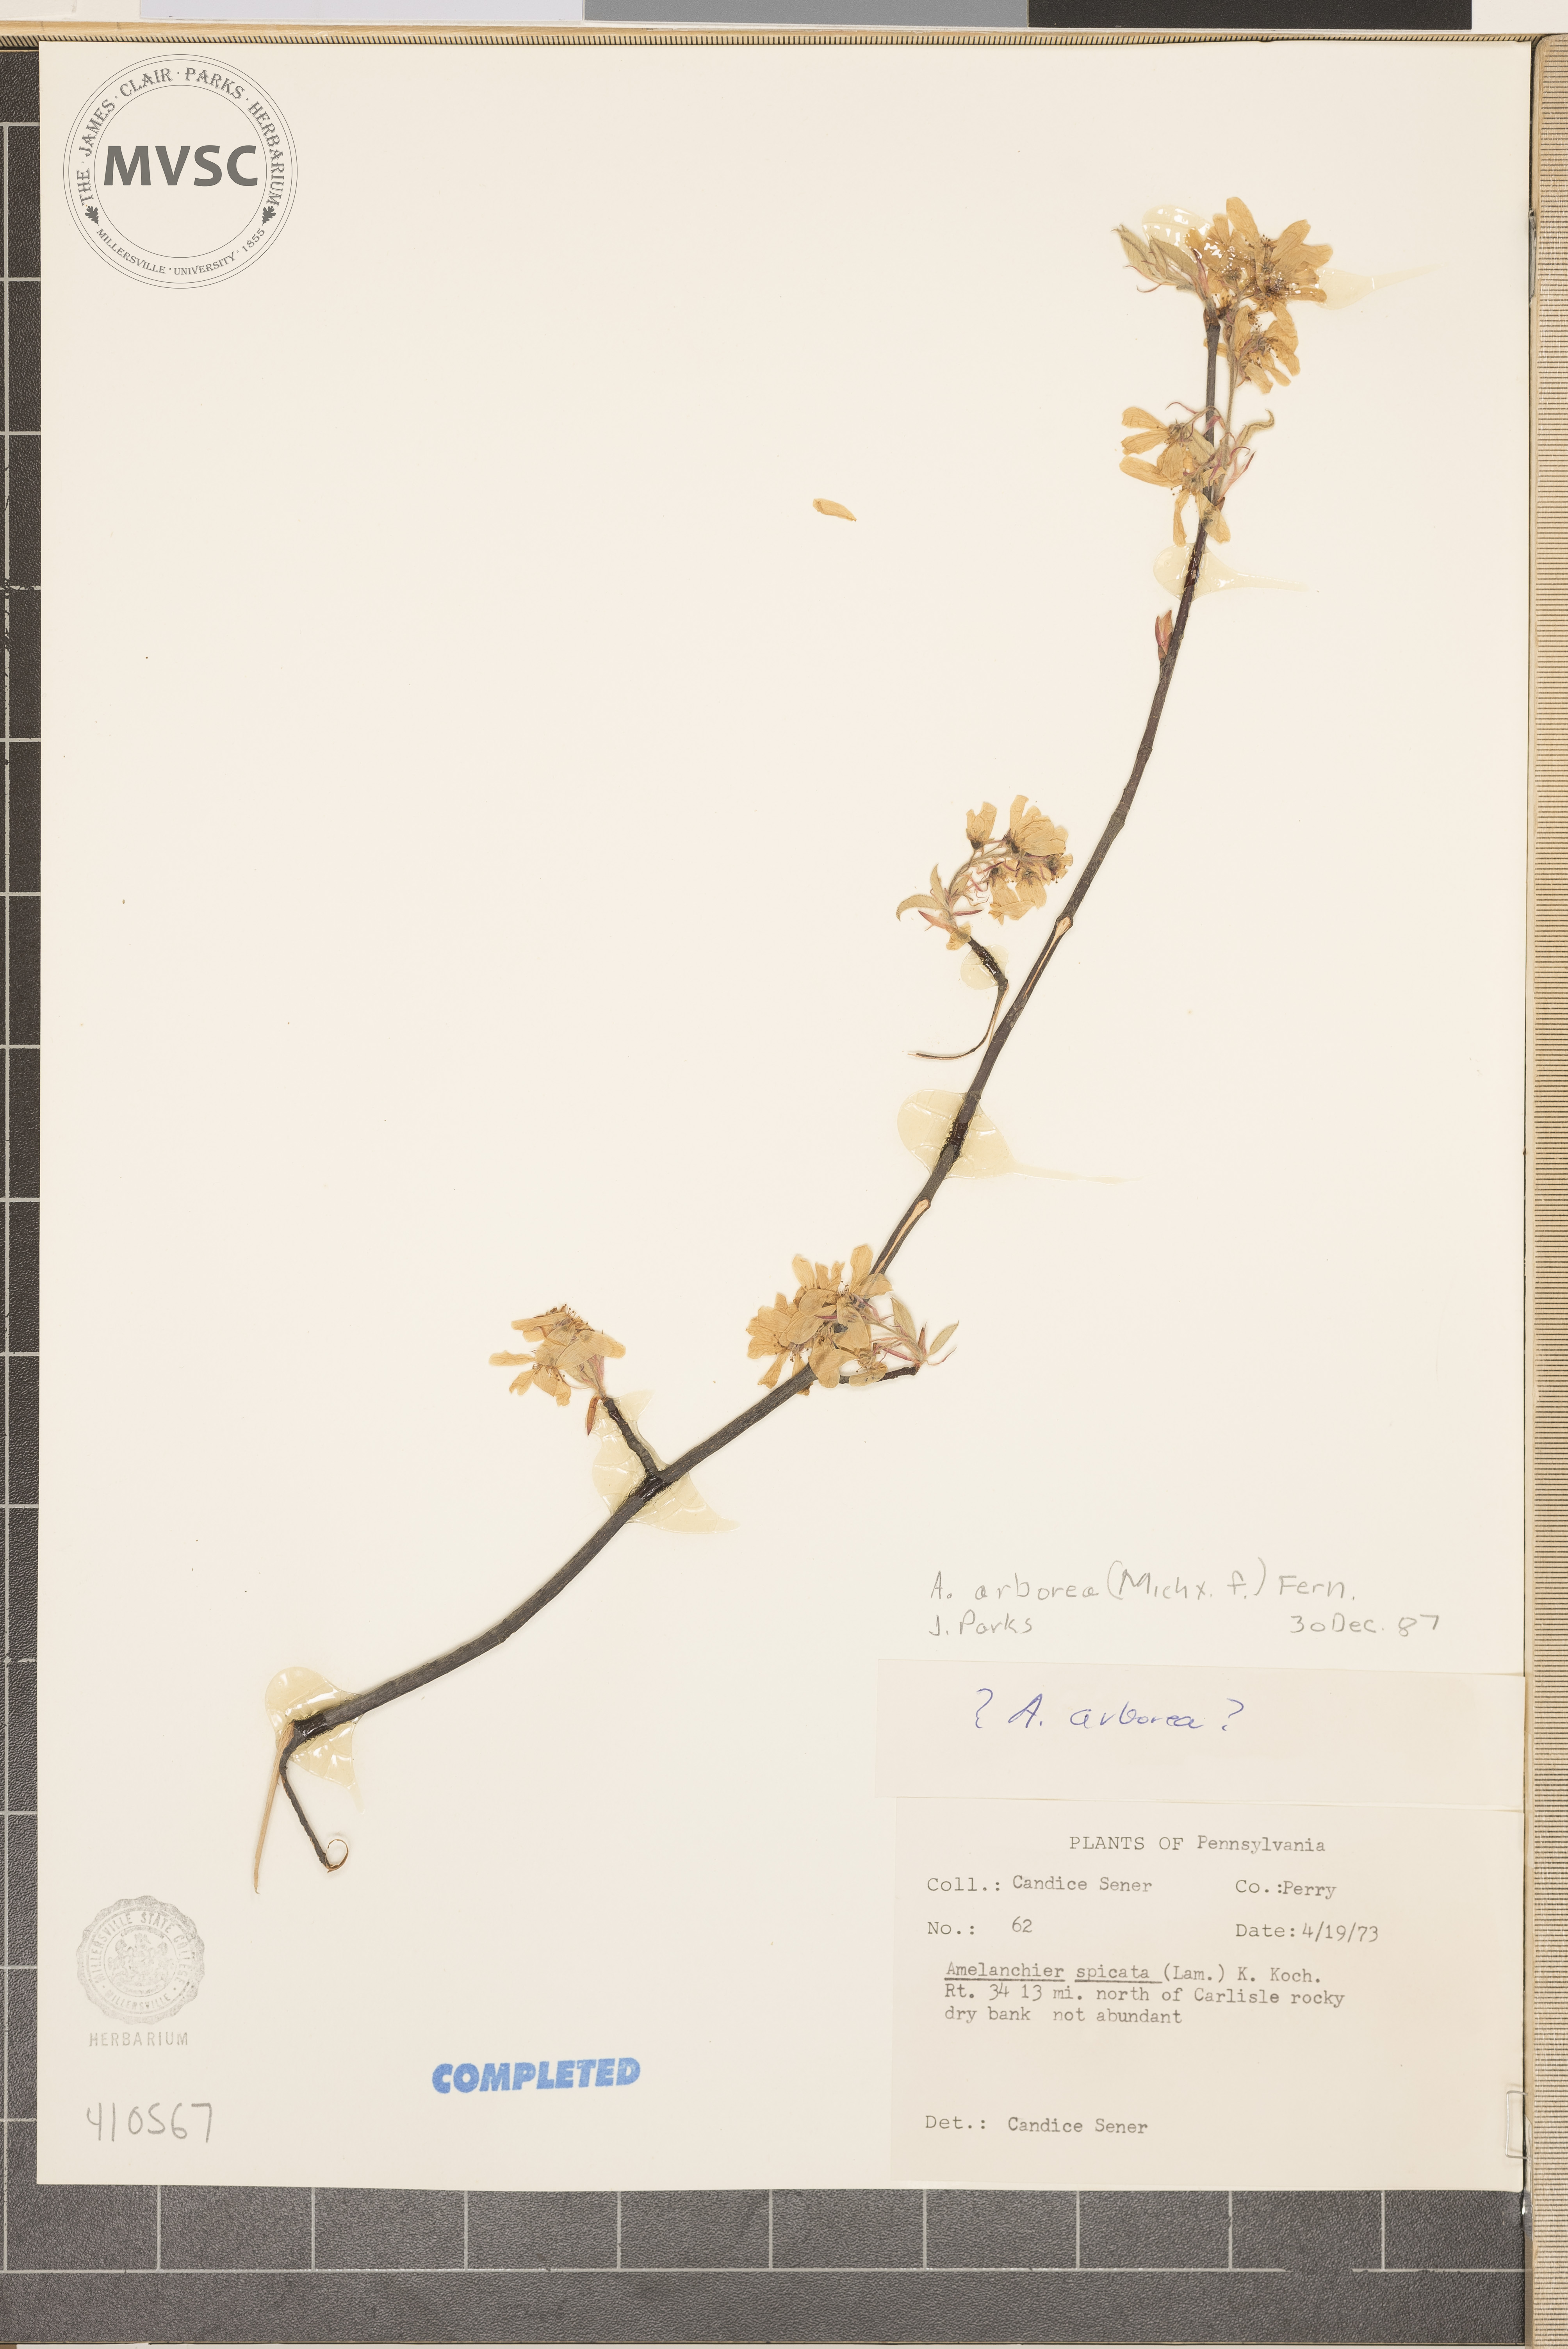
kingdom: Plantae
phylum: Tracheophyta
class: Magnoliopsida
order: Rosales
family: Rosaceae
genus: Amelanchier
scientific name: Amelanchier arborea
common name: Downy serviceberry
